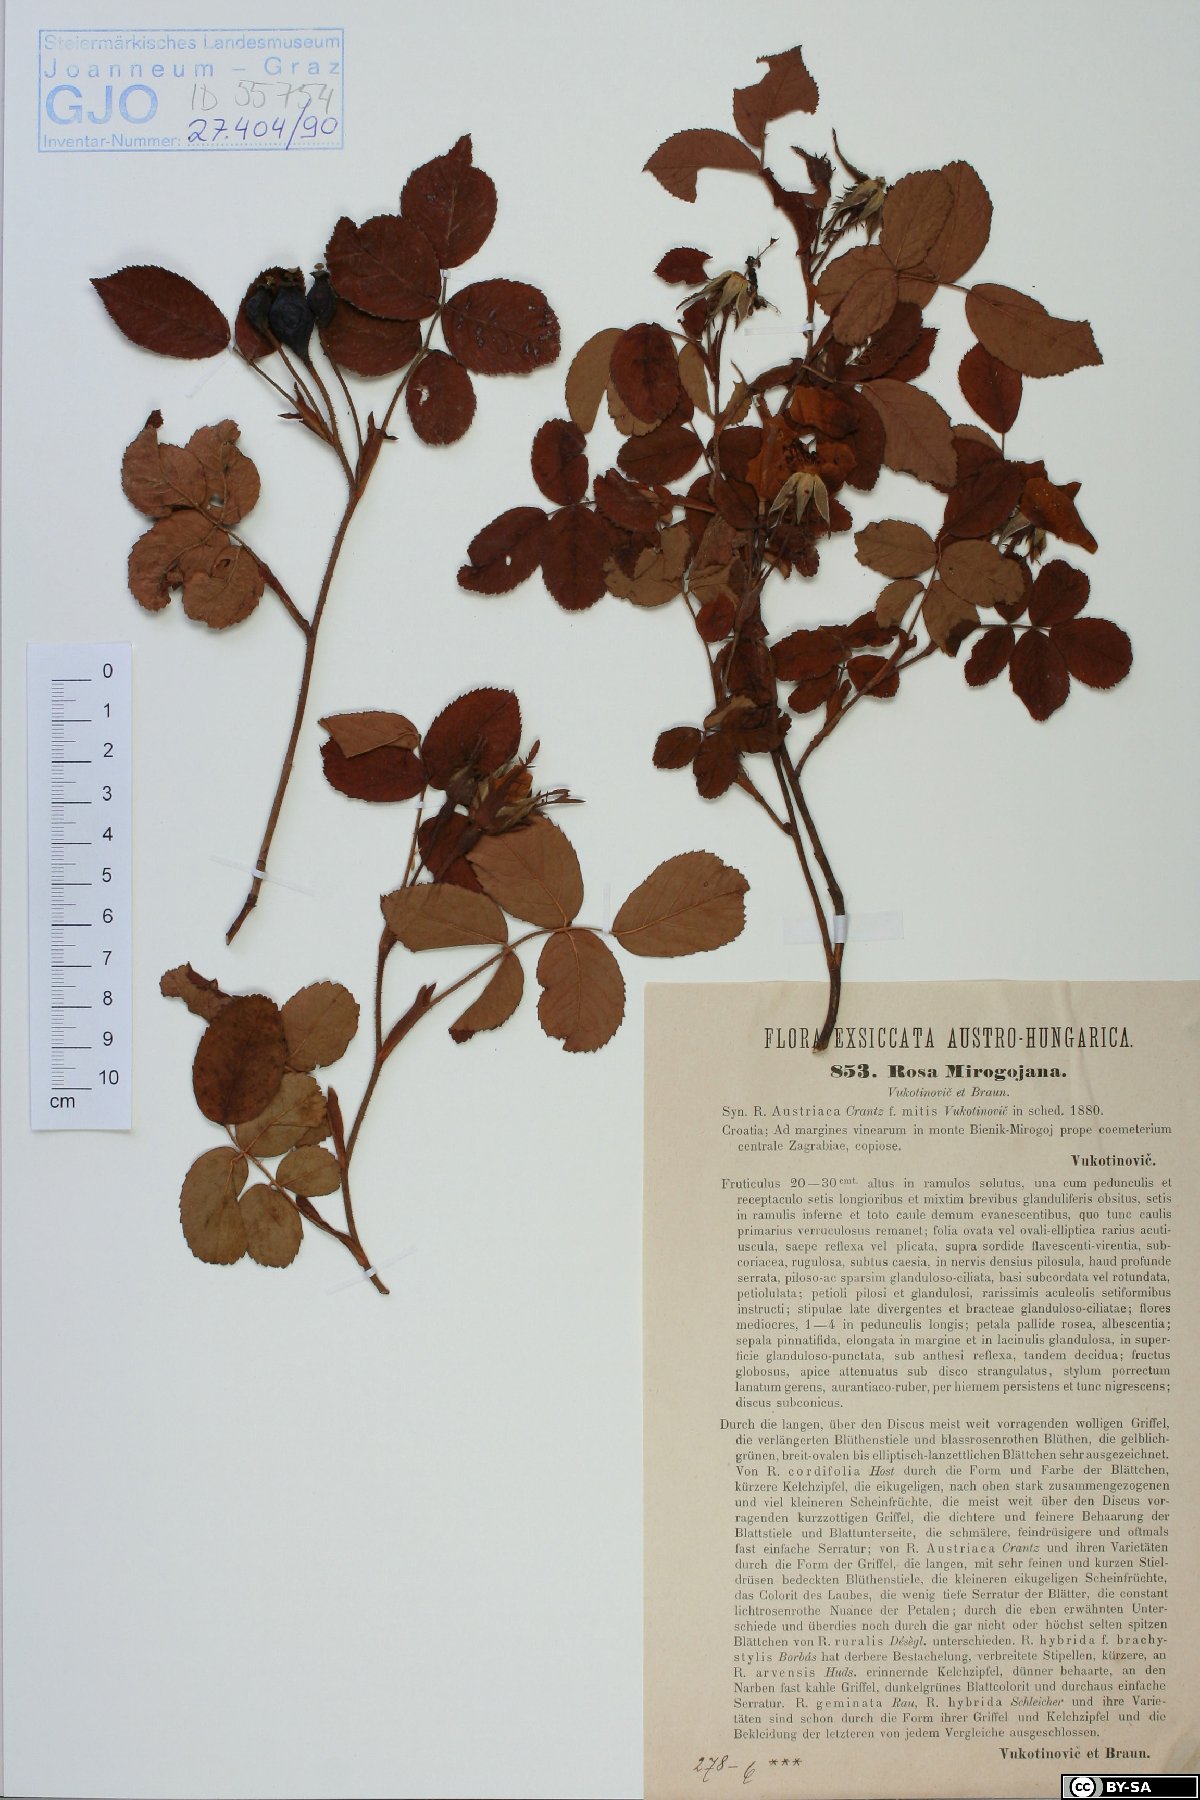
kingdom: Plantae
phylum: Tracheophyta
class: Magnoliopsida
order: Rosales
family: Rosaceae
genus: Rosa
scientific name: Rosa gallica
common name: French rose
